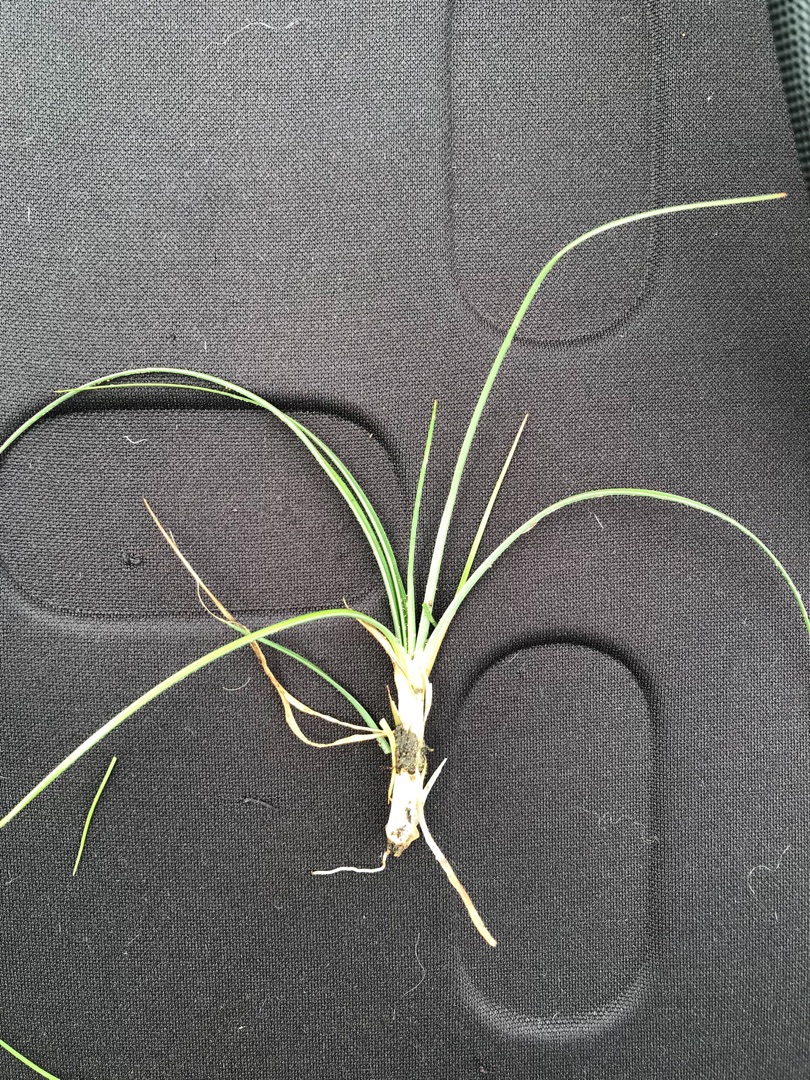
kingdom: Plantae
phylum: Tracheophyta
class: Liliopsida
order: Alismatales
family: Juncaginaceae
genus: Triglochin
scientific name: Triglochin maritima
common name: Strand-trehage
